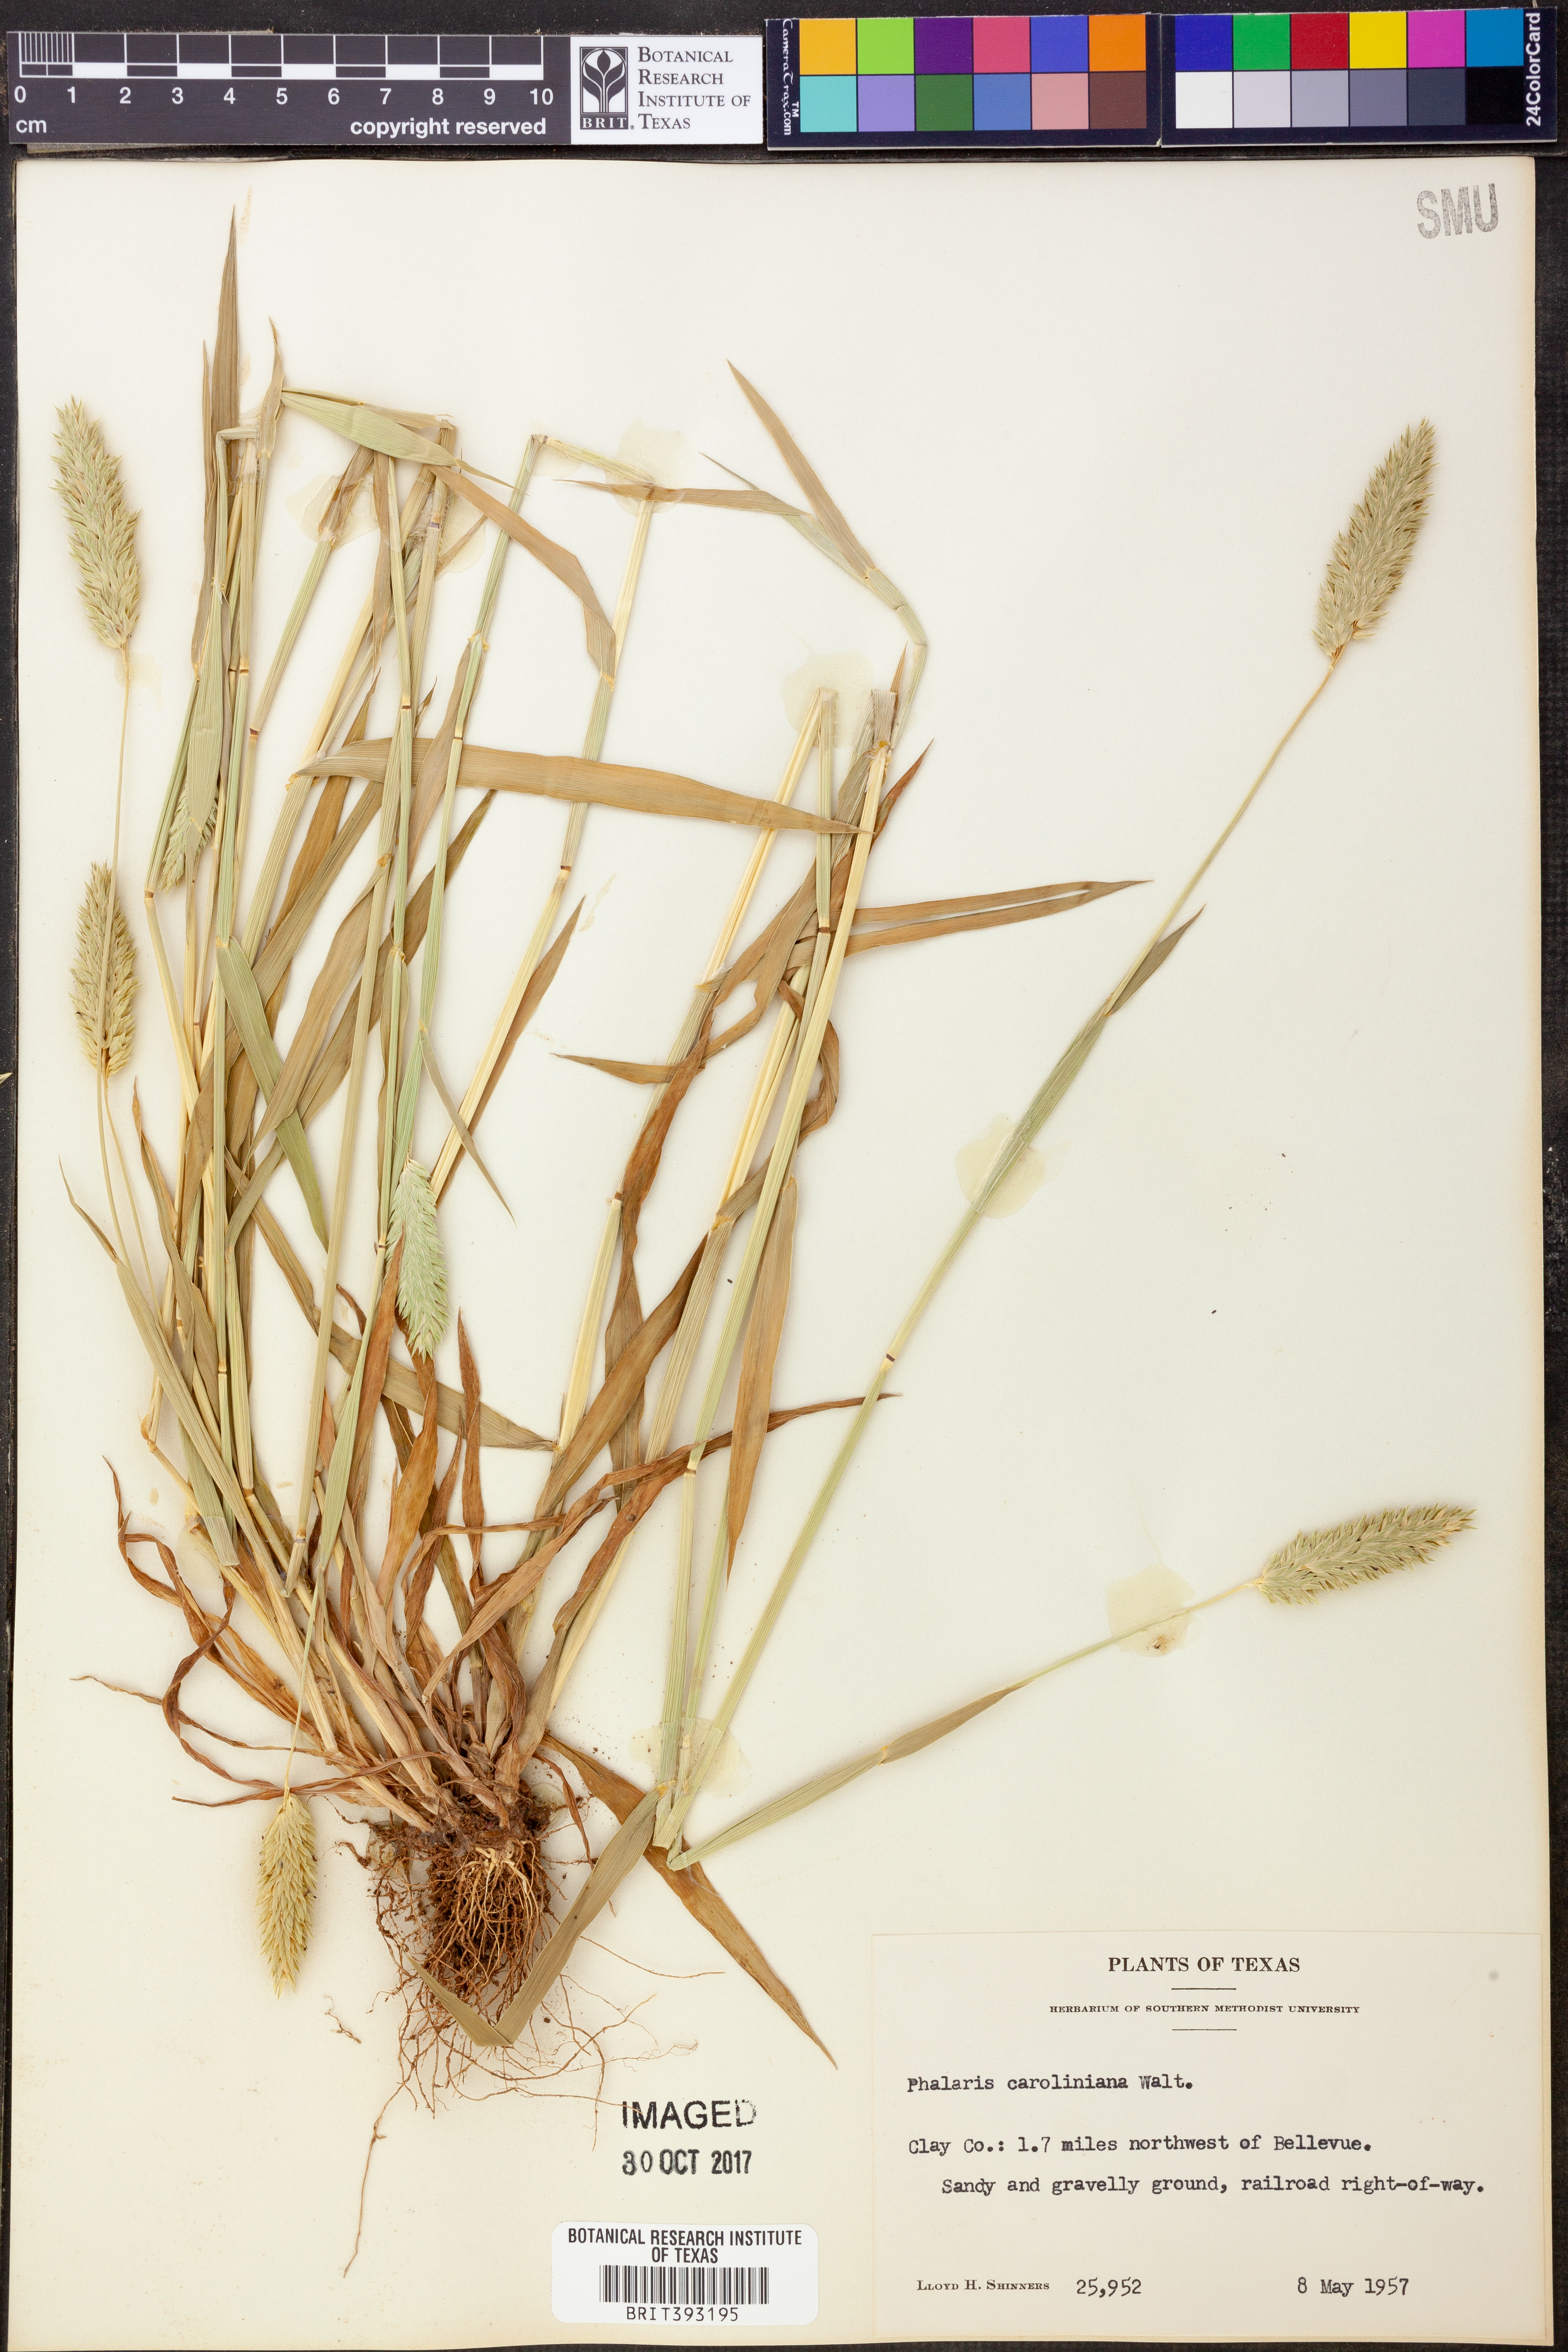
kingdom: Plantae
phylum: Tracheophyta
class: Liliopsida
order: Poales
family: Poaceae
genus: Phalaris
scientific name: Phalaris caroliniana
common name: May grass
